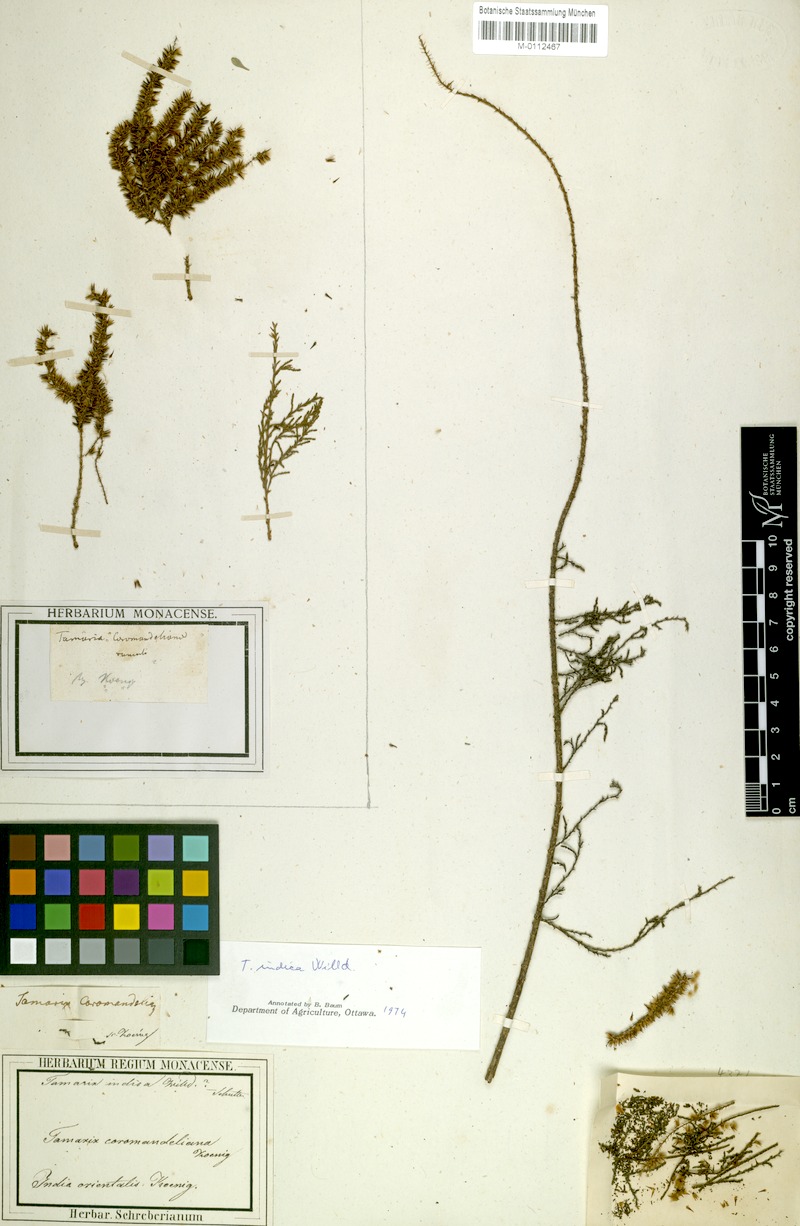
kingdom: Plantae
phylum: Tracheophyta
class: Magnoliopsida
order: Caryophyllales
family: Tamaricaceae
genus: Tamarix
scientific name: Tamarix
